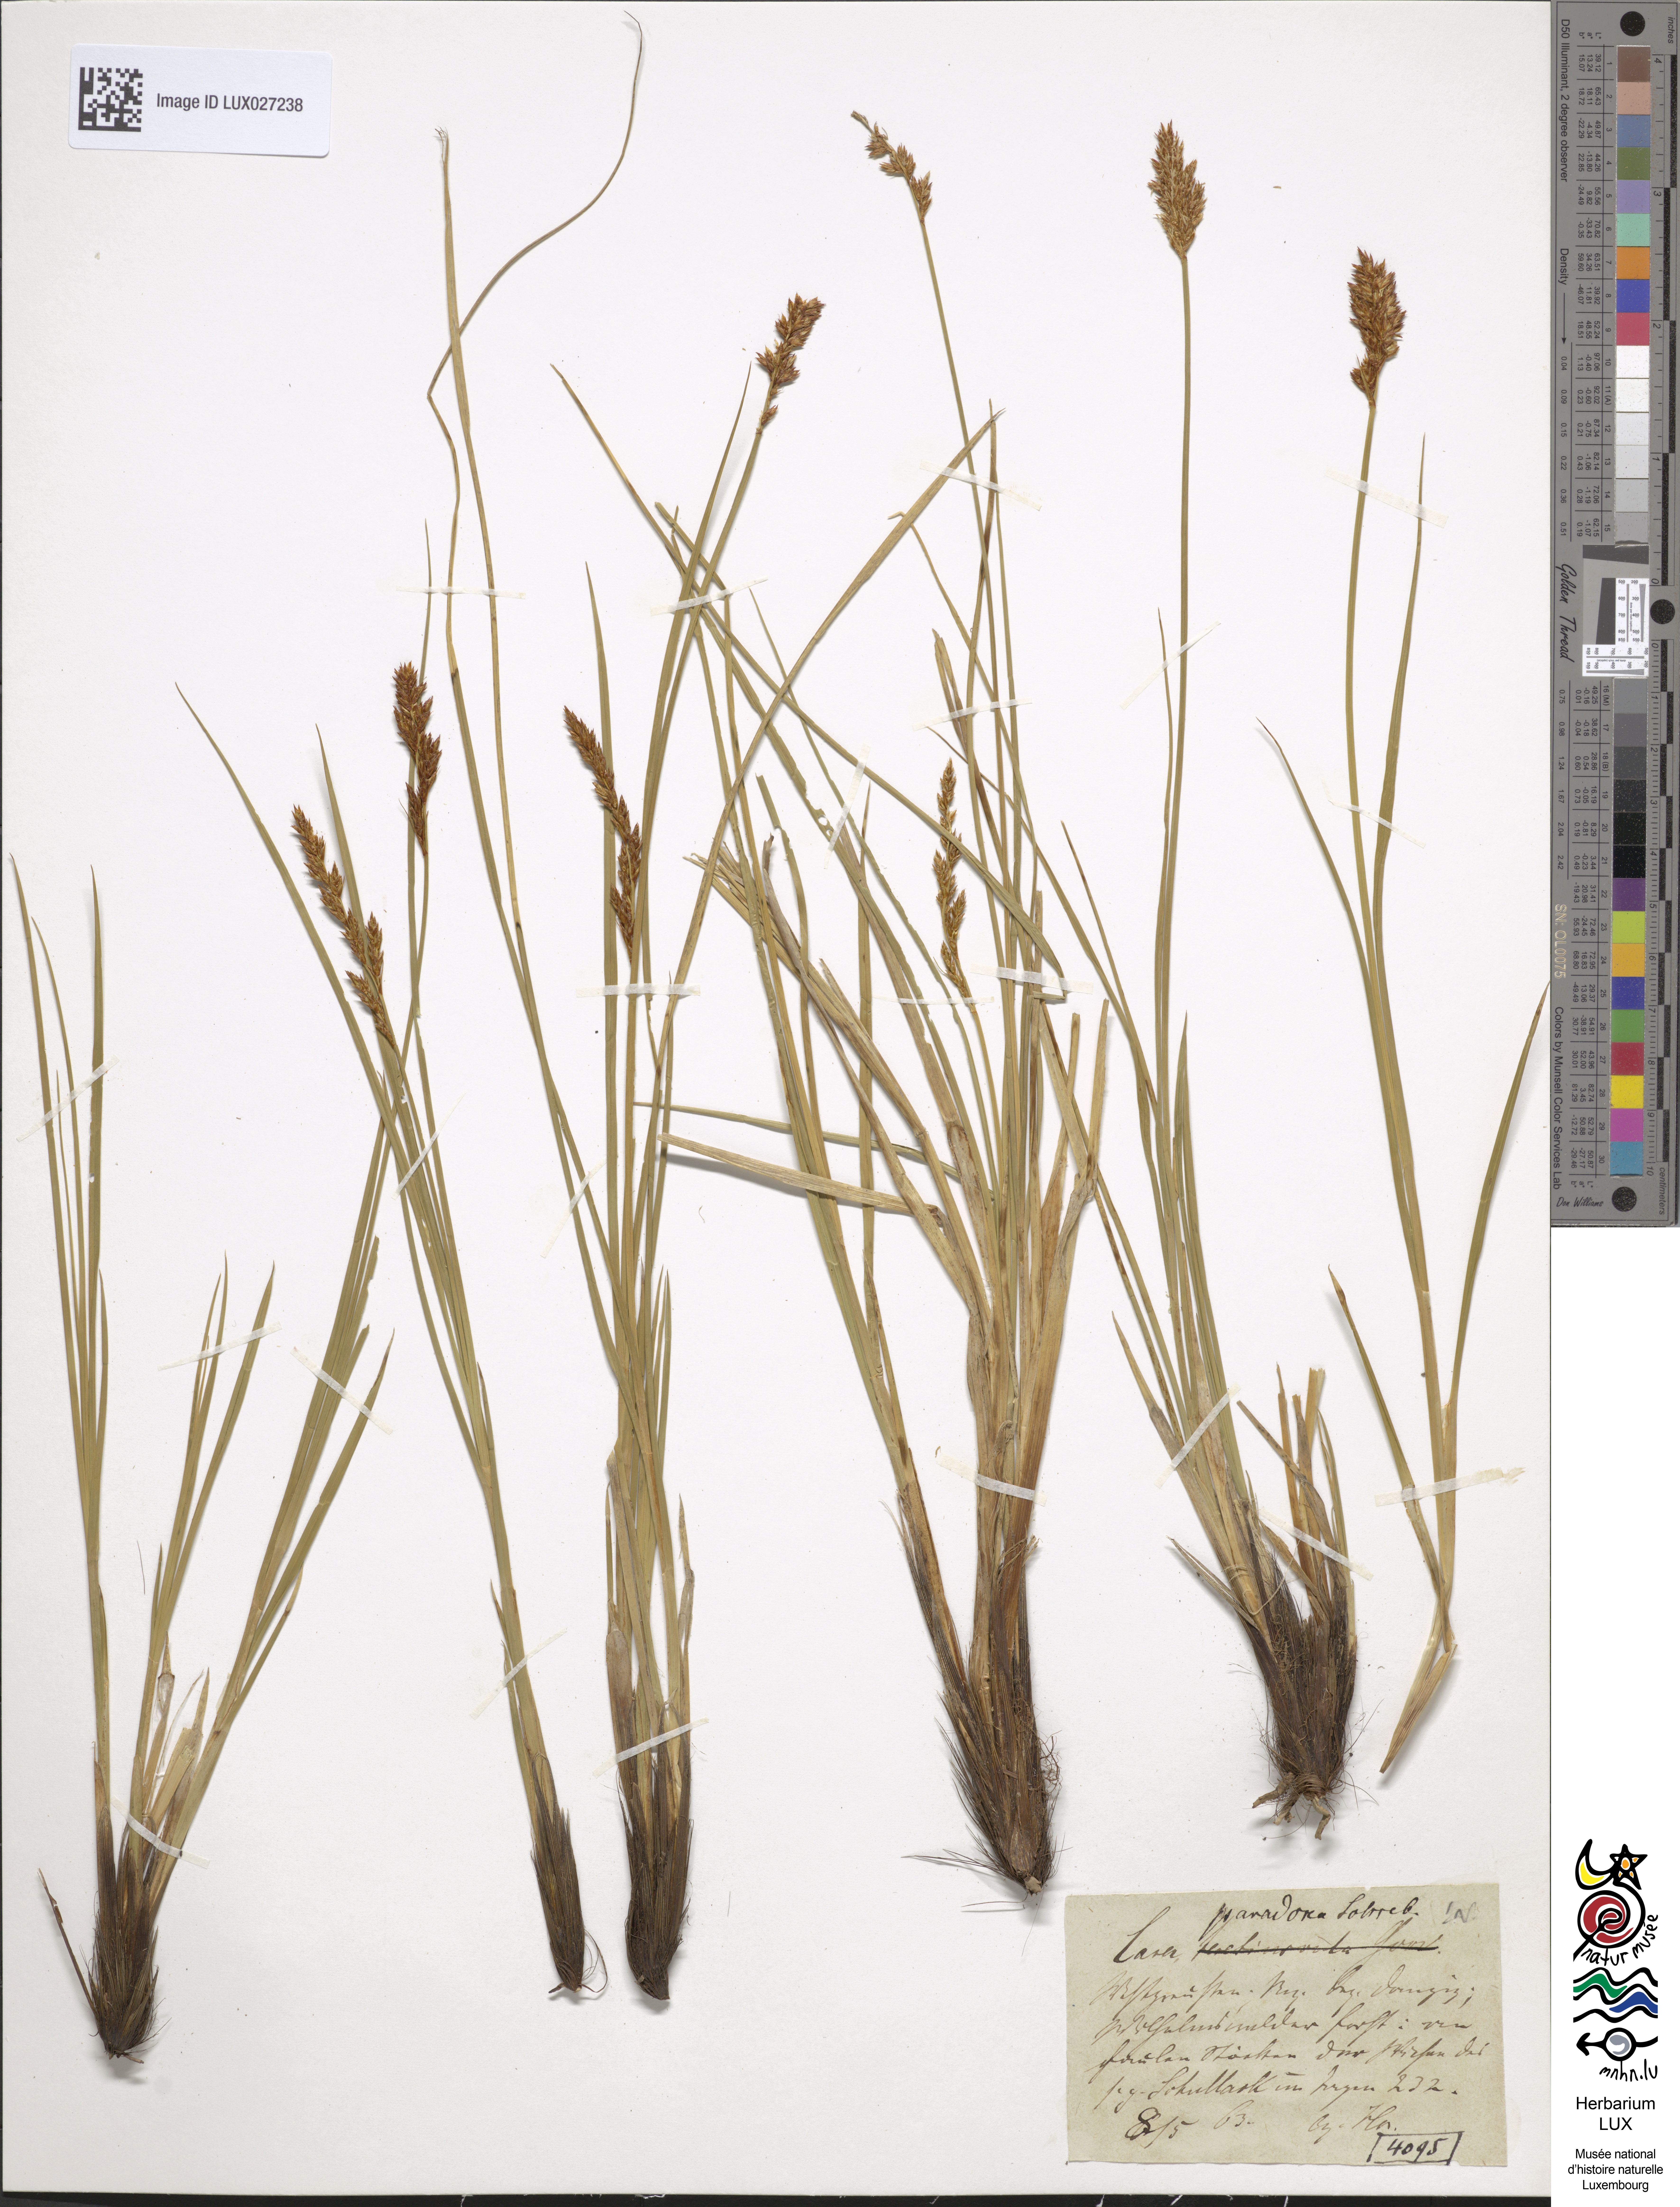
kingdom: Plantae
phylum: Tracheophyta
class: Liliopsida
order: Poales
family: Cyperaceae
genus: Carex
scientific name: Carex appropinquata
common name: Fibrous tussock-sedge
